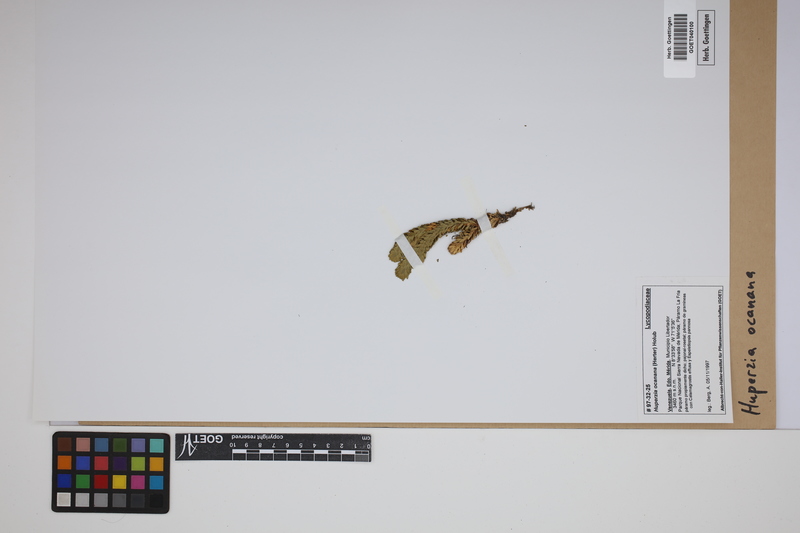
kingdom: Plantae
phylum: Tracheophyta
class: Lycopodiopsida
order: Lycopodiales
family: Lycopodiaceae
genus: Phlegmariurus
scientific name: Phlegmariurus ocananus
